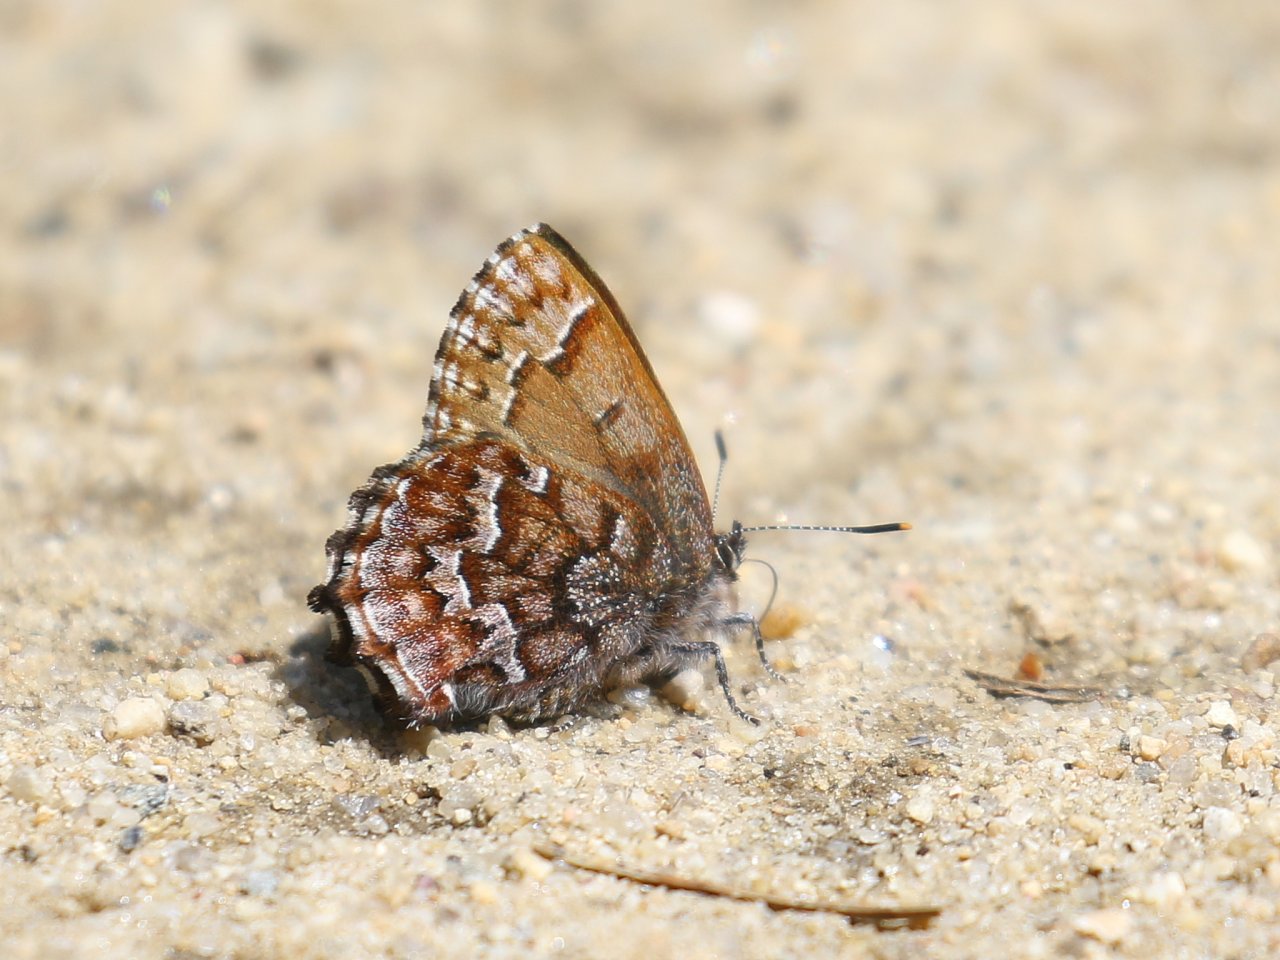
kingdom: Animalia
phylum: Arthropoda
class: Insecta
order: Lepidoptera
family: Lycaenidae
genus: Incisalia
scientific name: Incisalia niphon
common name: Eastern Pine Elfin
